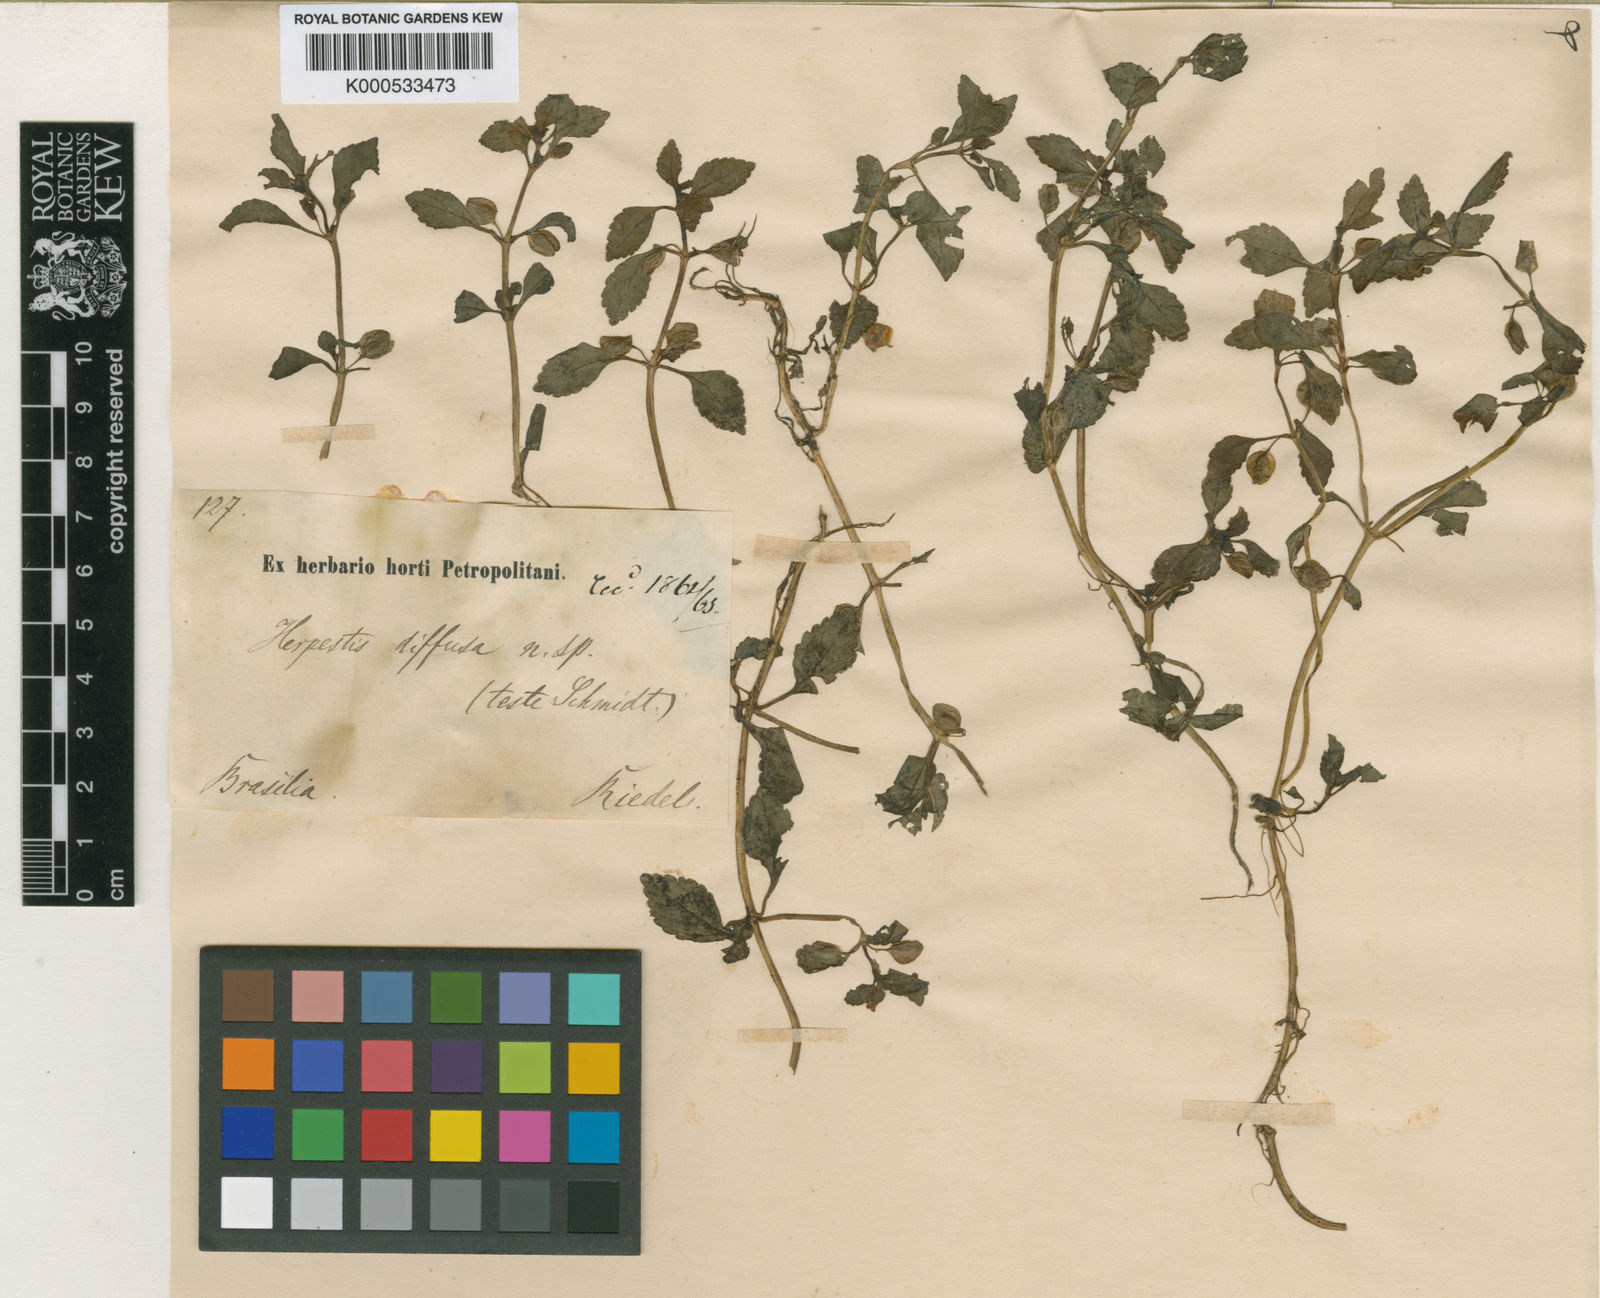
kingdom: Plantae
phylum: Tracheophyta
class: Magnoliopsida
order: Lamiales
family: Plantaginaceae
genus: Stemodia
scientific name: Stemodia verticillata
